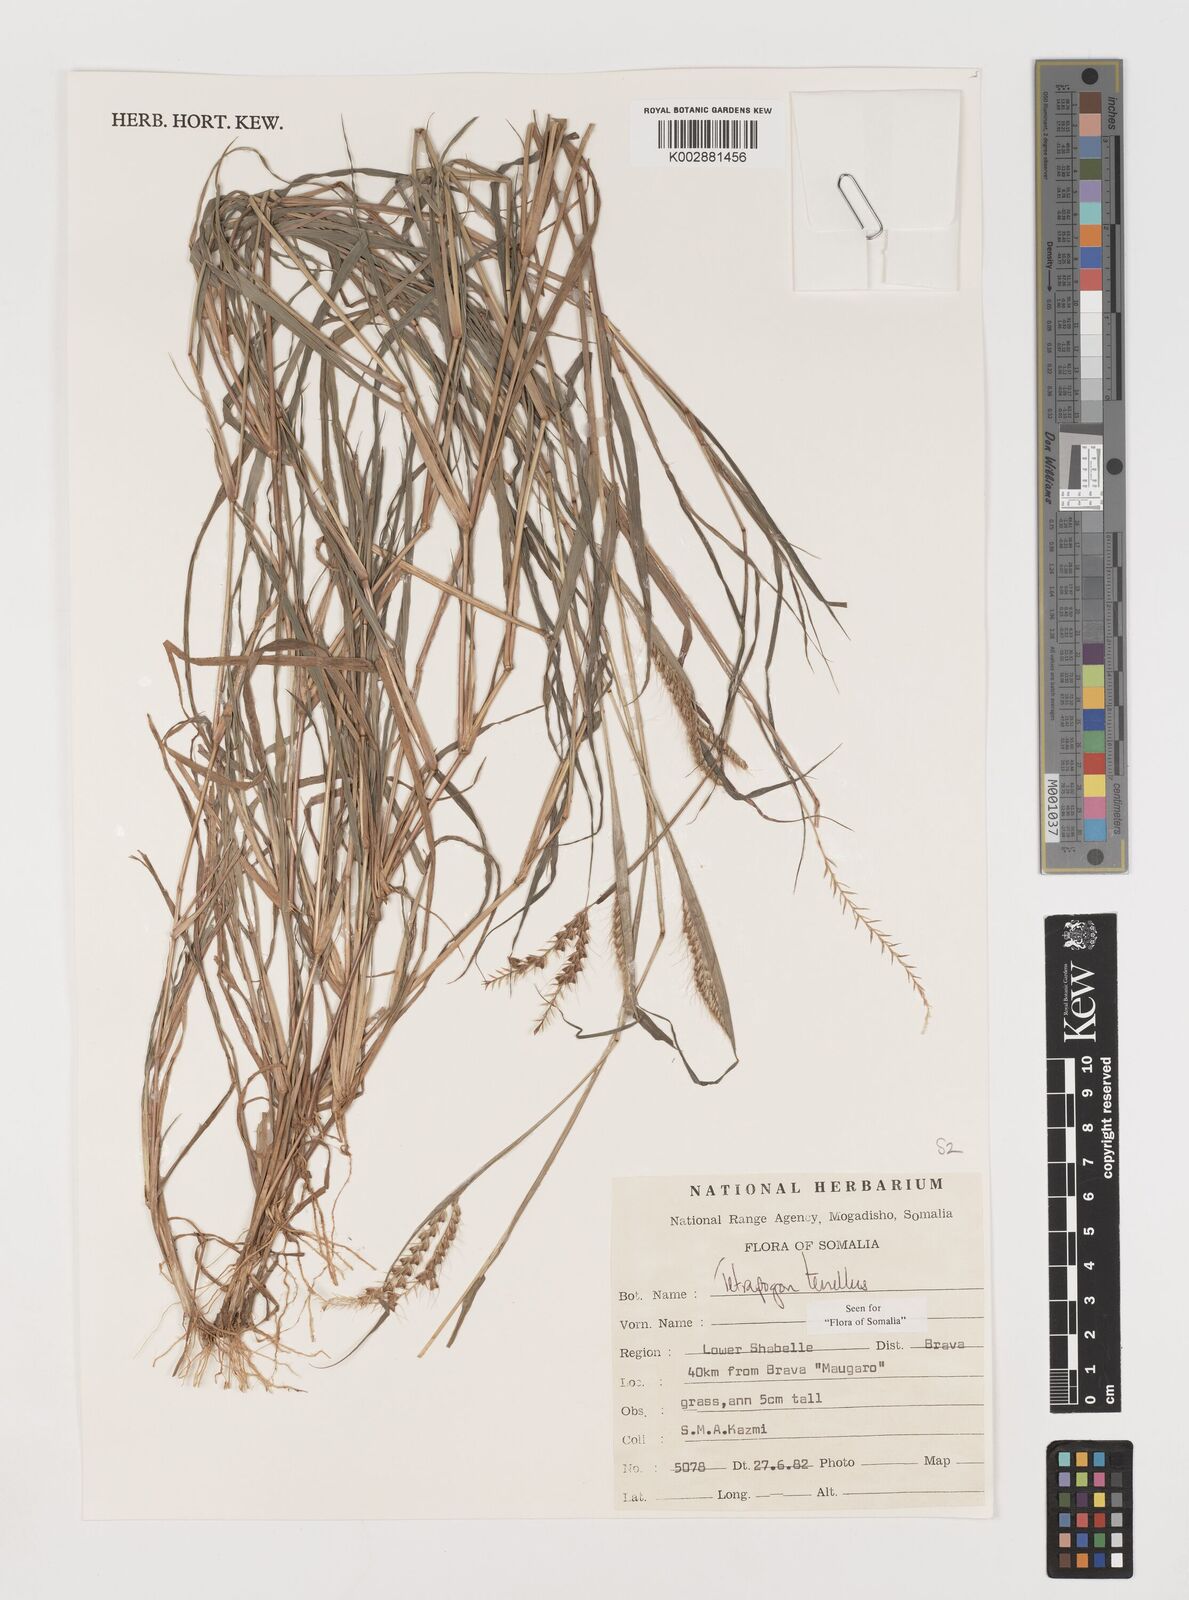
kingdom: Plantae
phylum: Tracheophyta
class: Liliopsida
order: Poales
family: Poaceae
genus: Tetrapogon
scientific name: Tetrapogon tenellus
